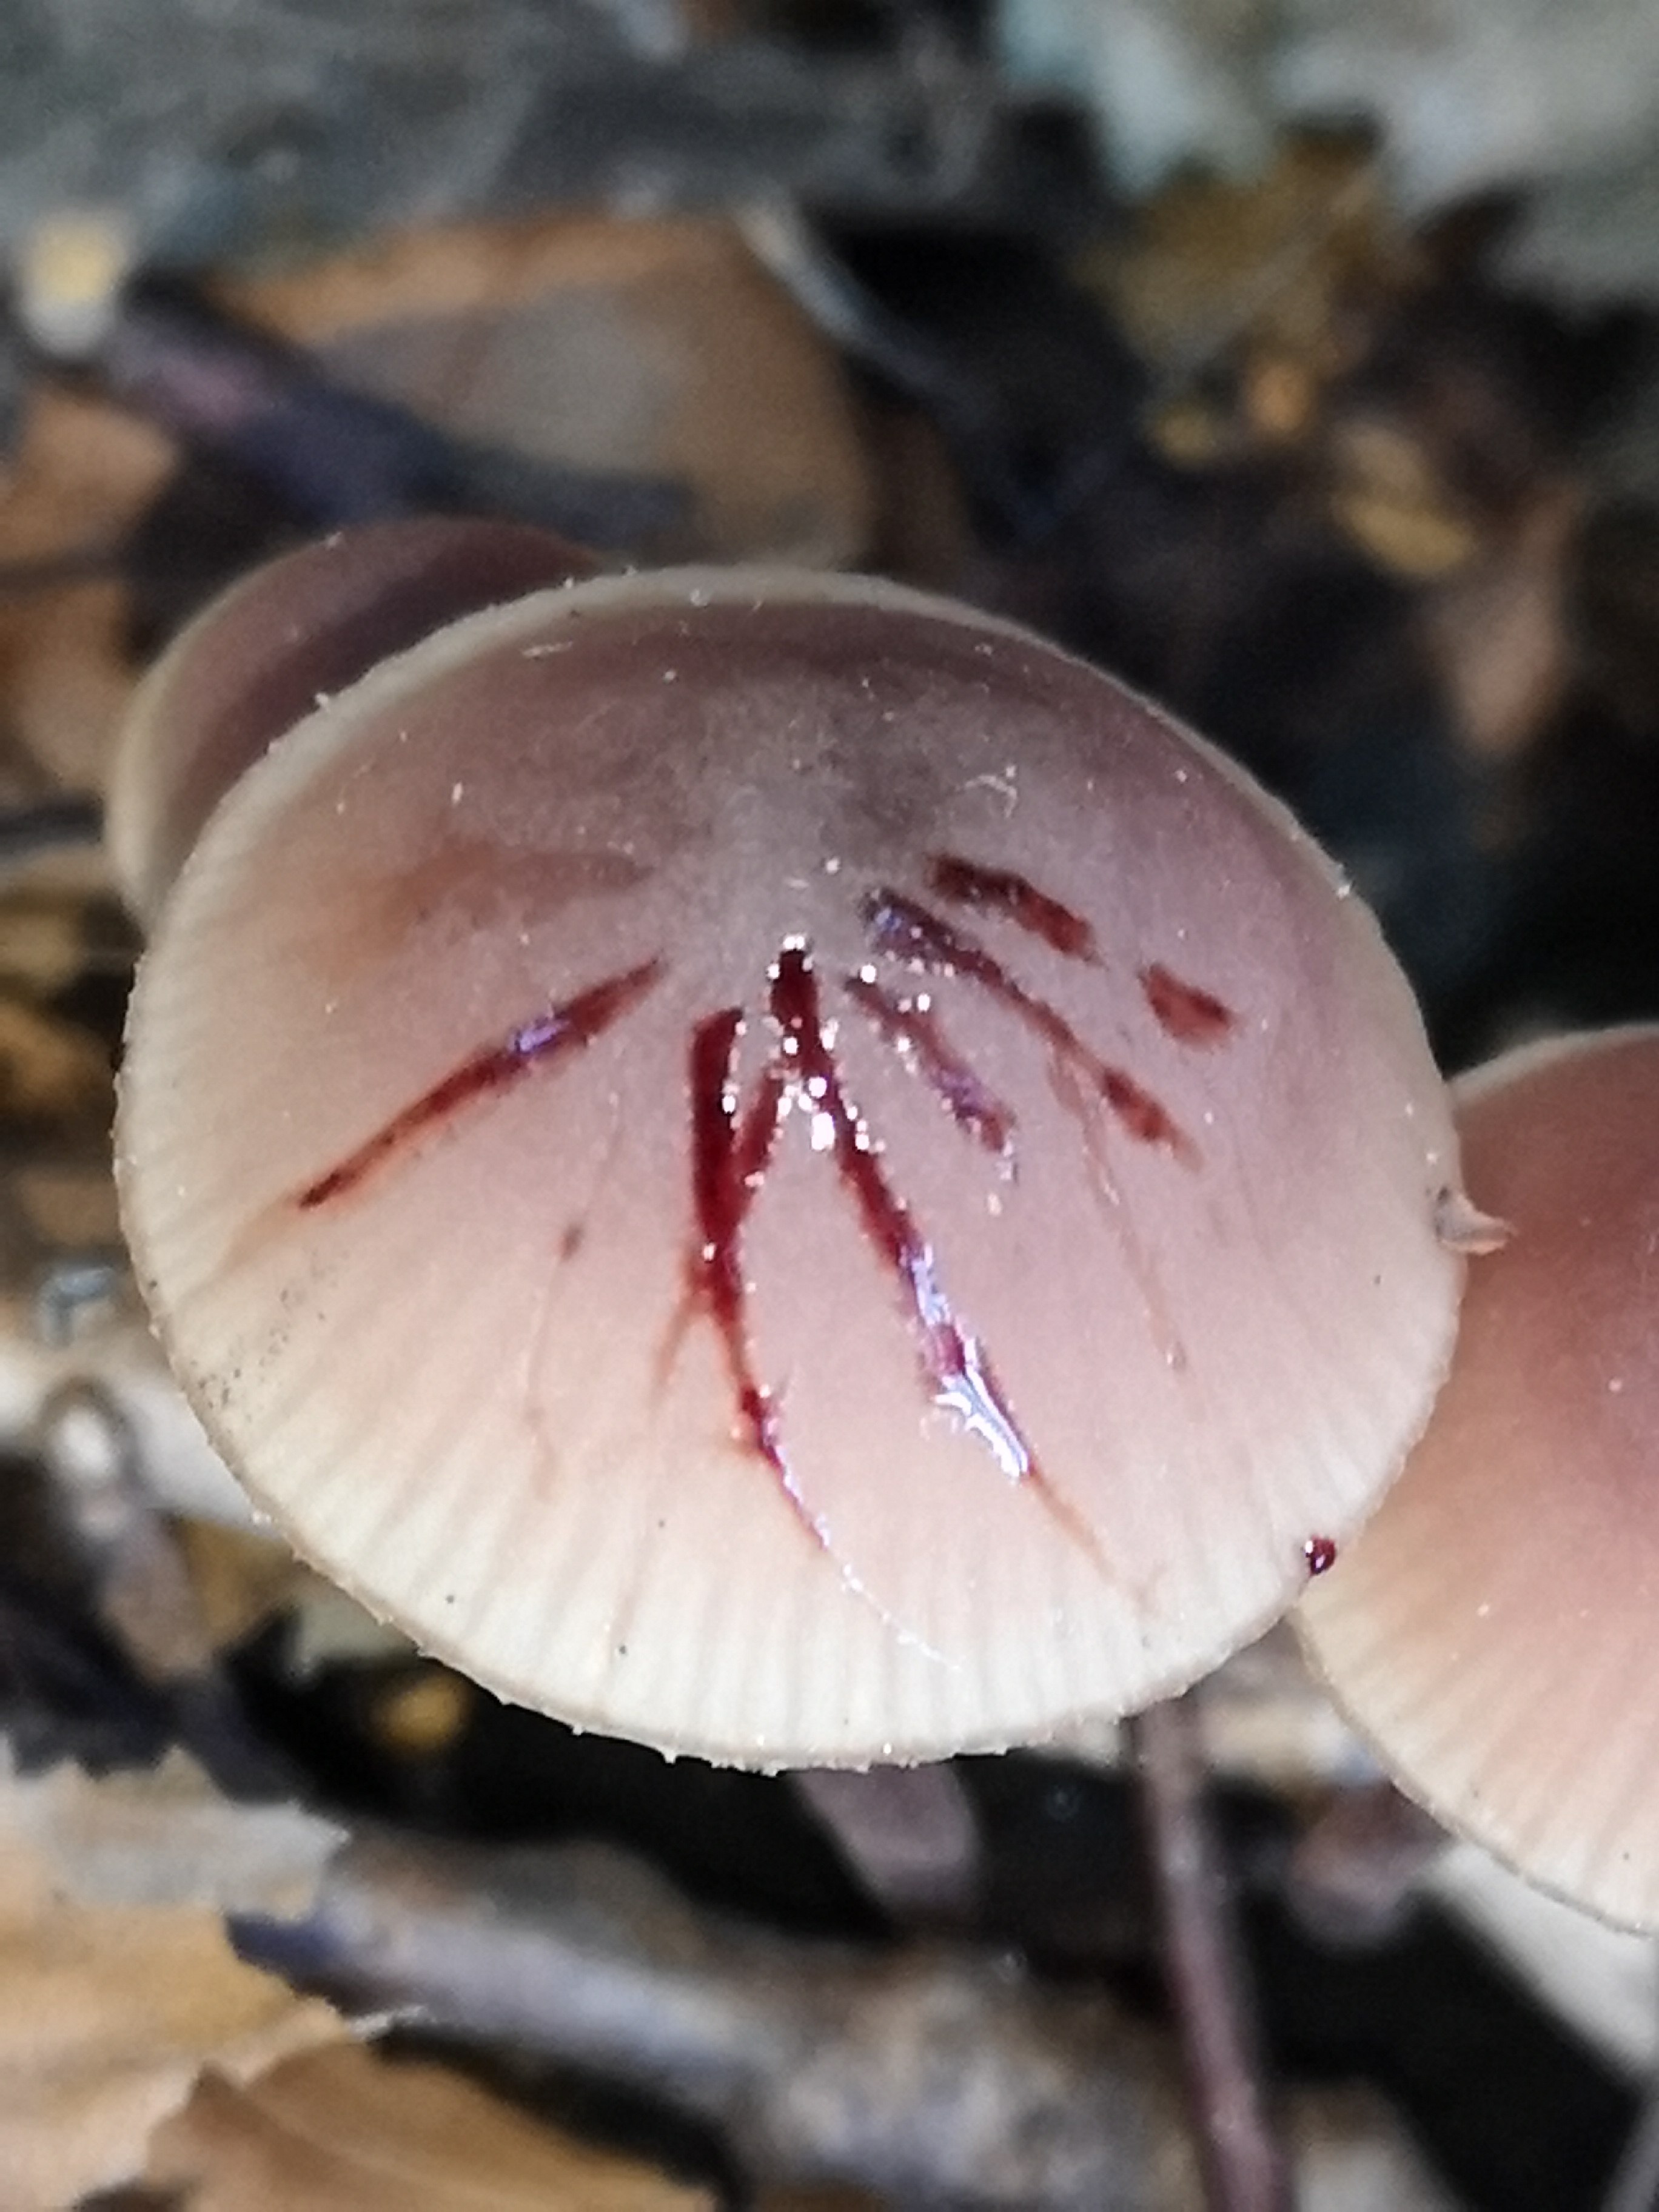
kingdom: Fungi
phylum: Basidiomycota
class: Agaricomycetes
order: Agaricales
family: Mycenaceae
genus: Mycena
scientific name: Mycena haematopus
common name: blødende huesvamp
